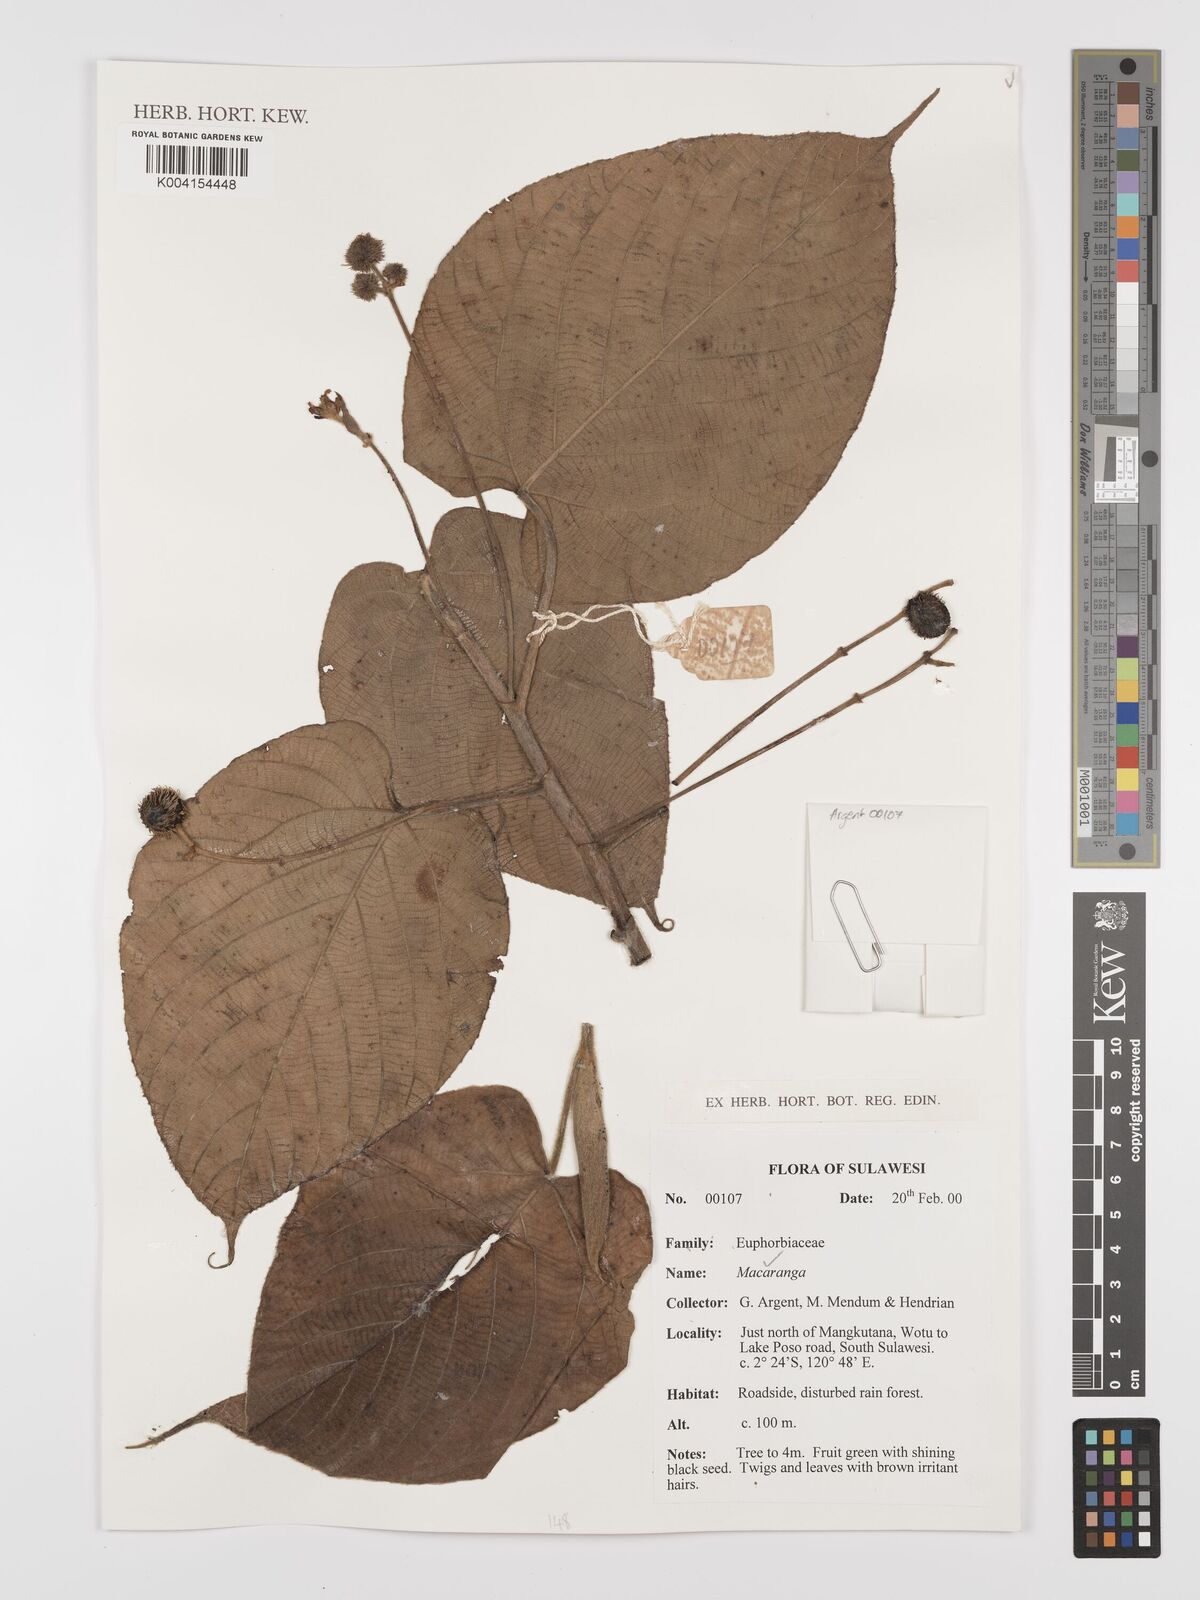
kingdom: Plantae
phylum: Tracheophyta
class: Magnoliopsida
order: Malpighiales
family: Euphorbiaceae
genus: Macaranga
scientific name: Macaranga
